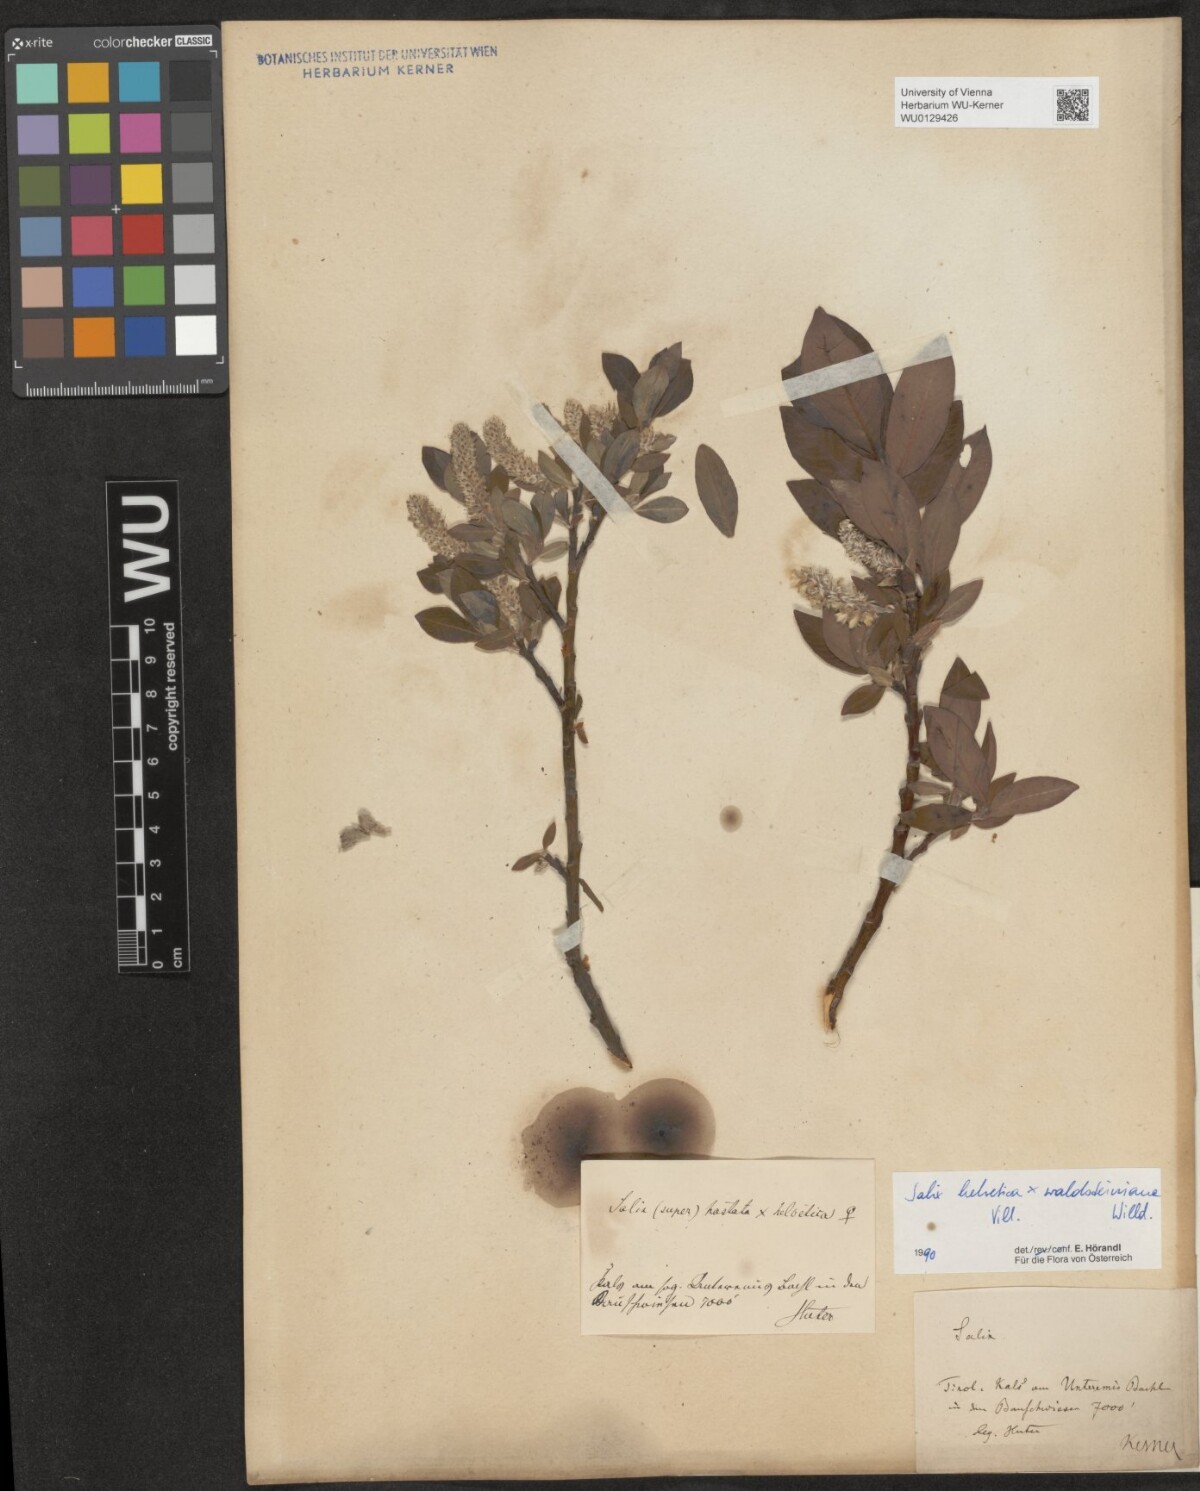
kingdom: Plantae
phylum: Tracheophyta
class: Magnoliopsida
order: Malpighiales
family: Salicaceae
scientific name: Salicaceae
